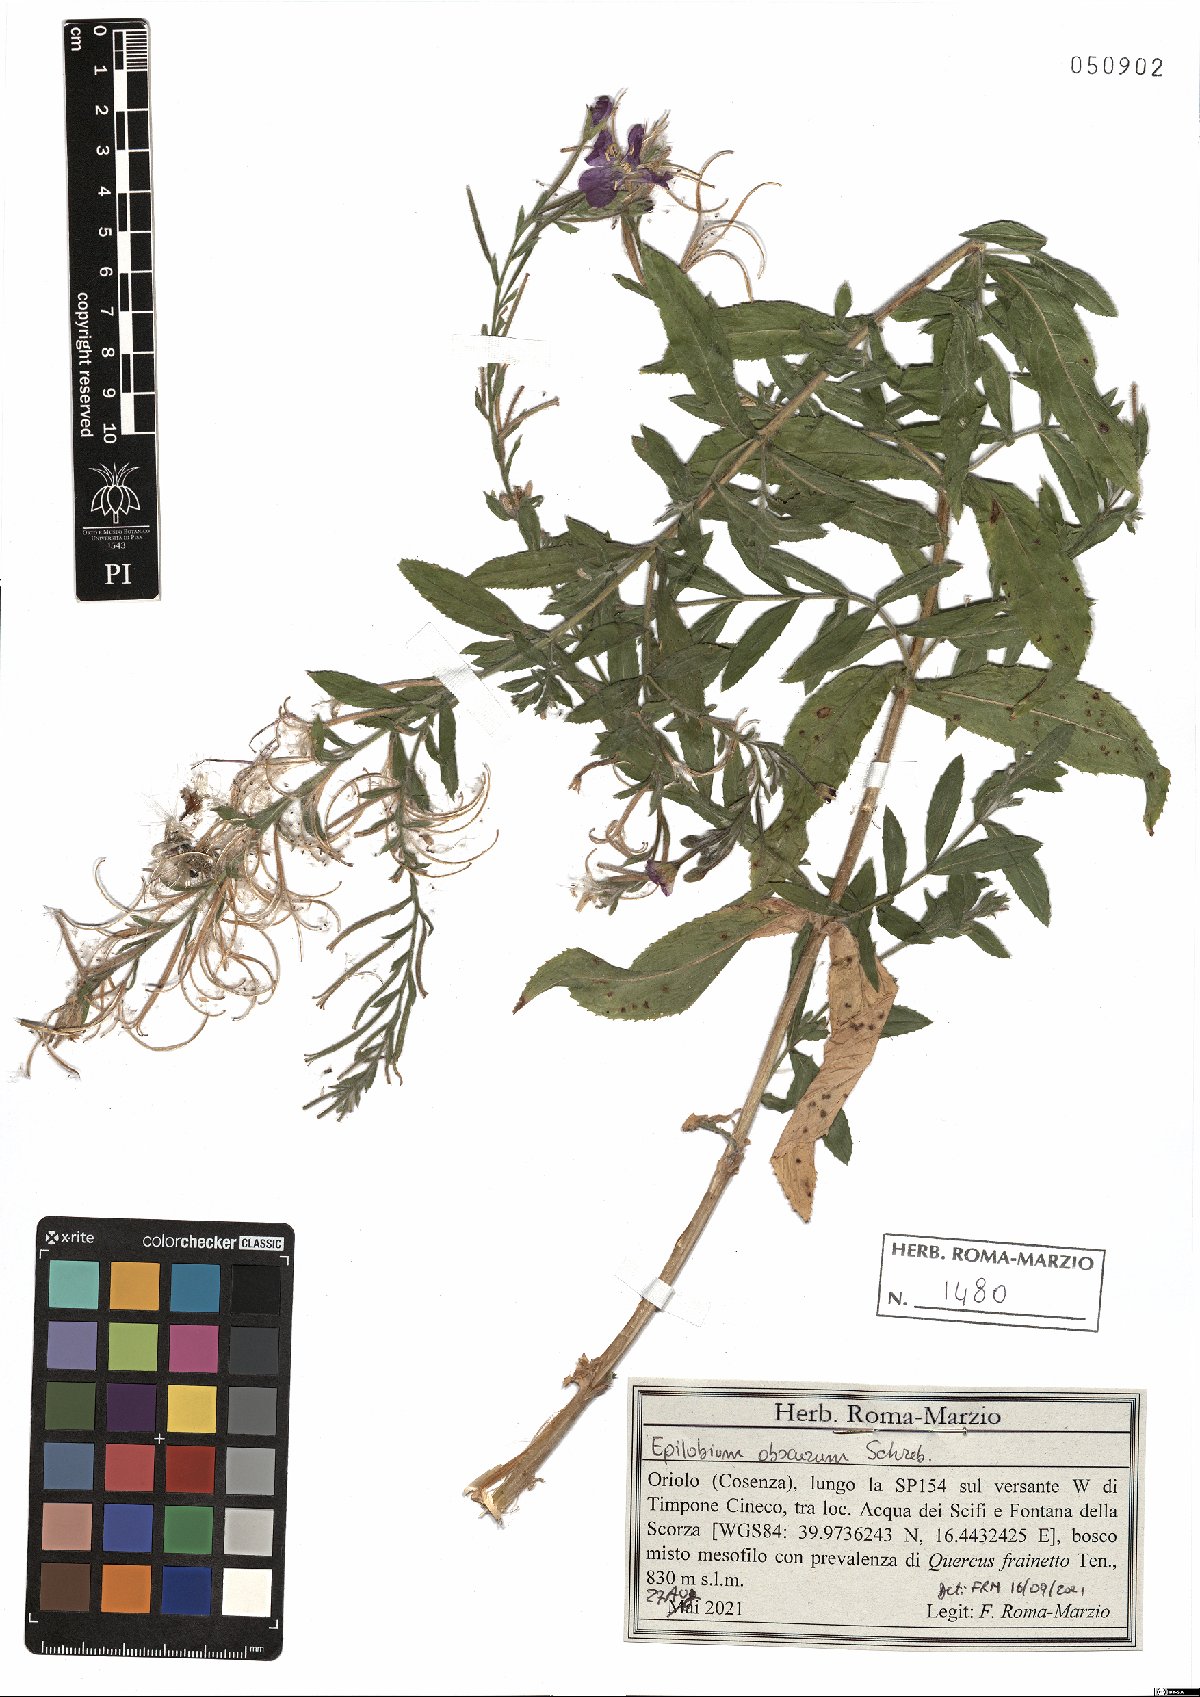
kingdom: Plantae
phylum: Tracheophyta
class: Magnoliopsida
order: Myrtales
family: Onagraceae
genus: Epilobium
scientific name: Epilobium obscurum
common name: Short-fruited willowherb
